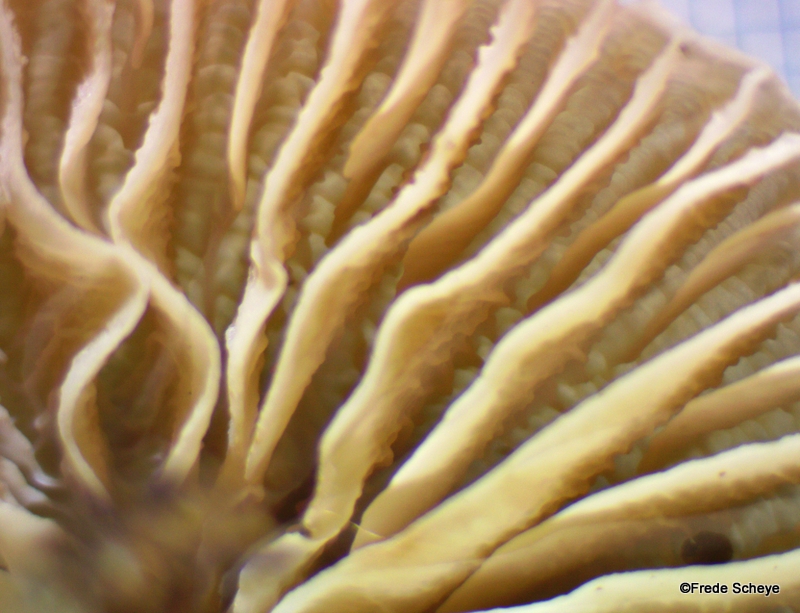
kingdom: Fungi
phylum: Basidiomycota
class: Agaricomycetes
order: Agaricales
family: Mycenaceae
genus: Mycena
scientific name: Mycena galericulata
